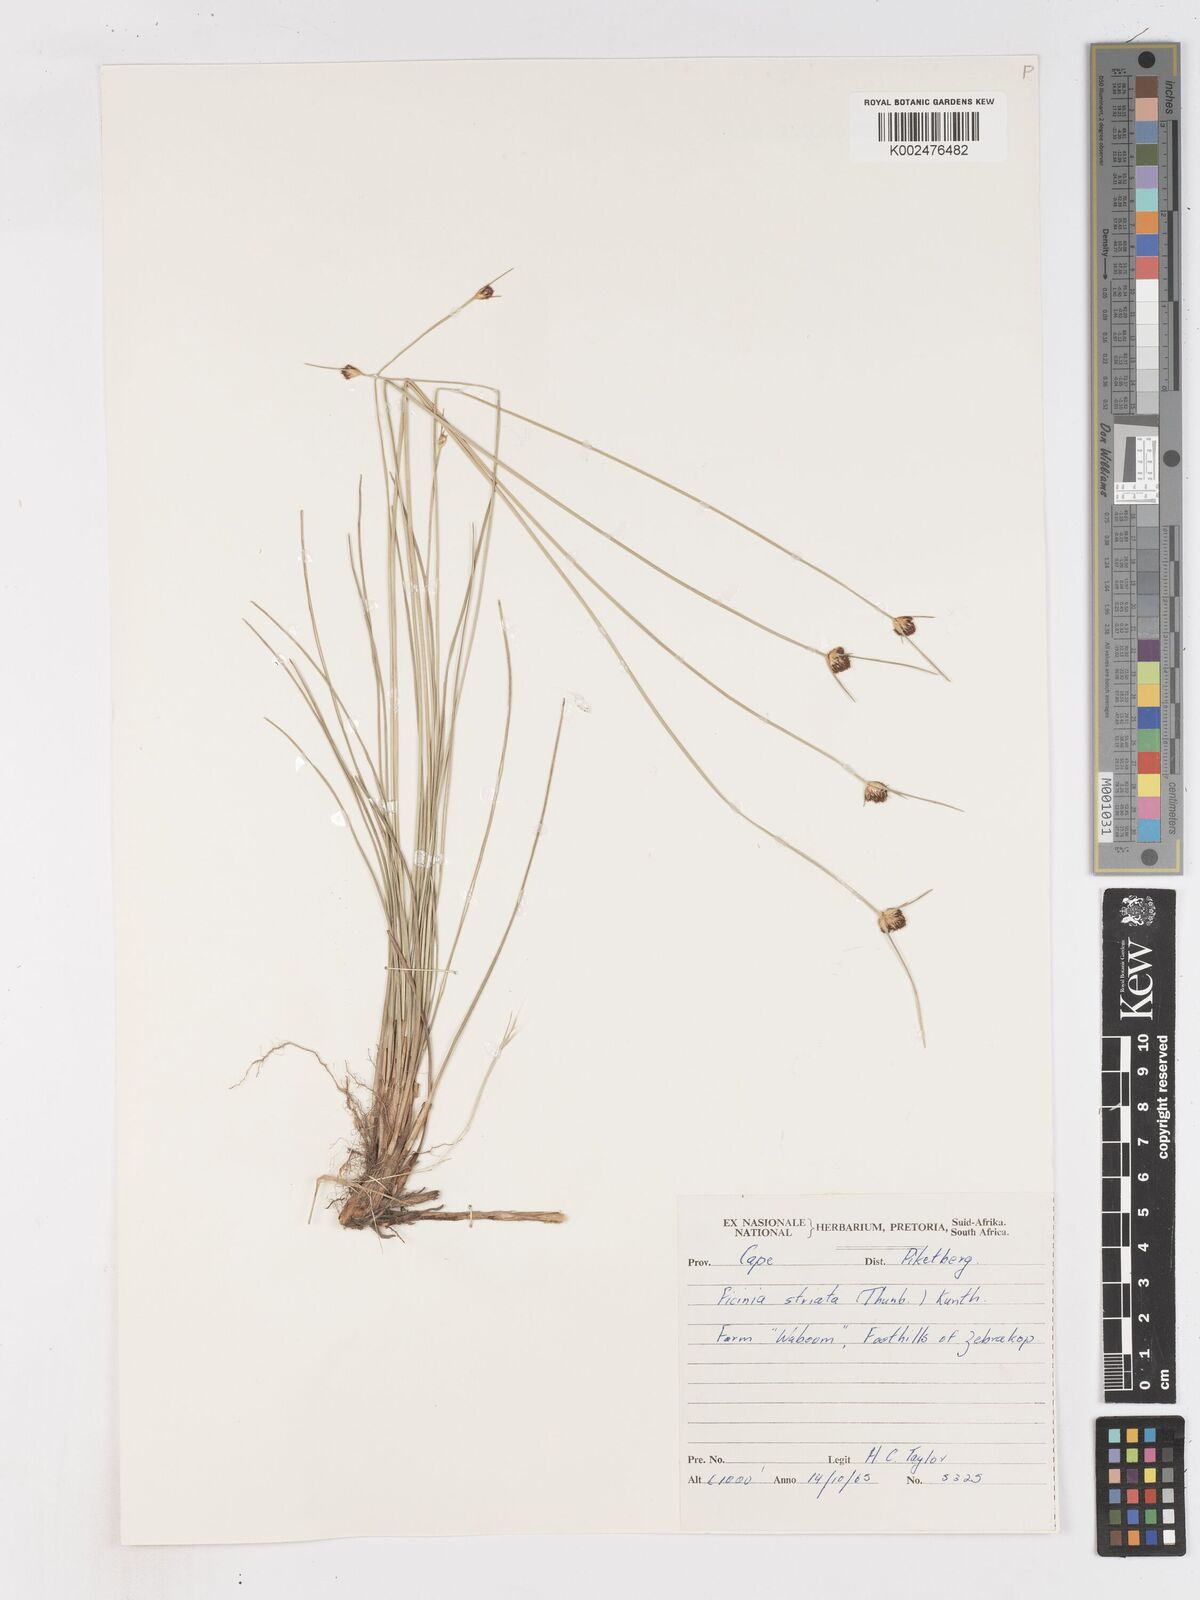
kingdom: Plantae
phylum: Tracheophyta
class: Liliopsida
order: Poales
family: Cyperaceae
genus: Ficinia
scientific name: Ficinia indica
